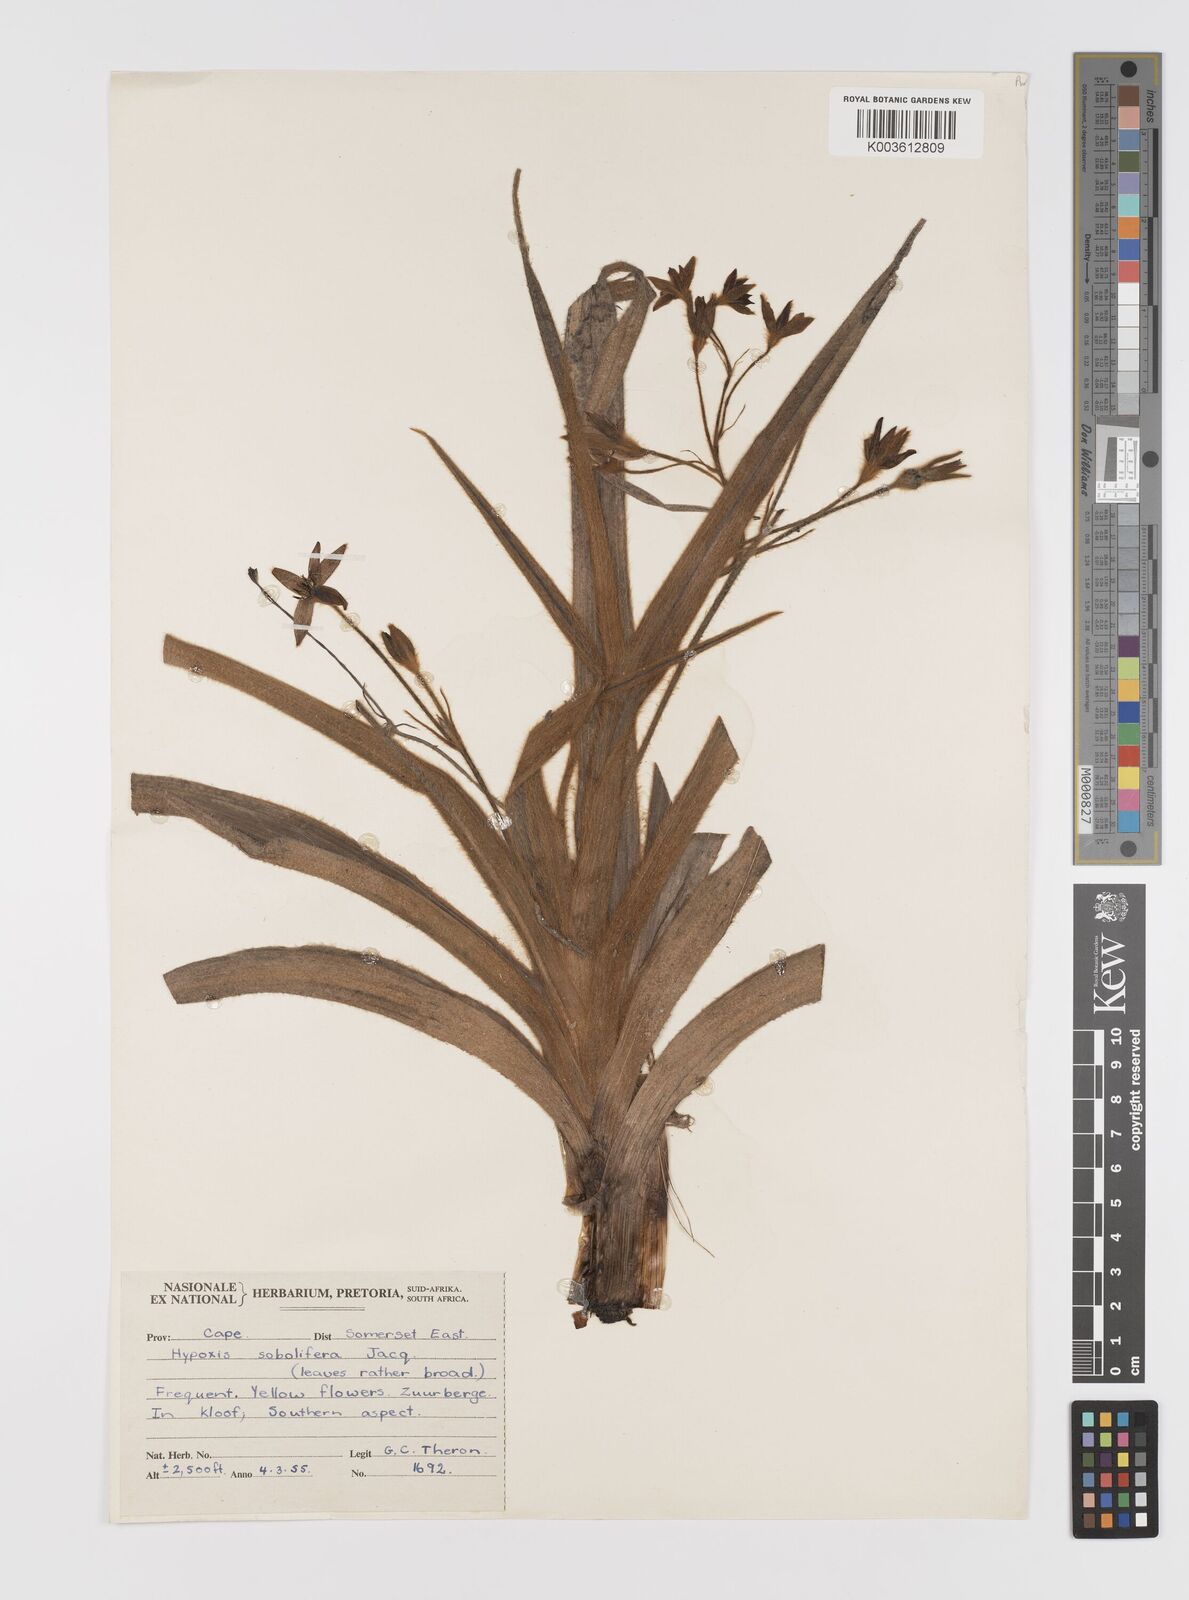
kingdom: Plantae
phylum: Tracheophyta
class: Liliopsida
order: Asparagales
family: Hypoxidaceae
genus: Hypoxis
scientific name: Hypoxis sobolifera
